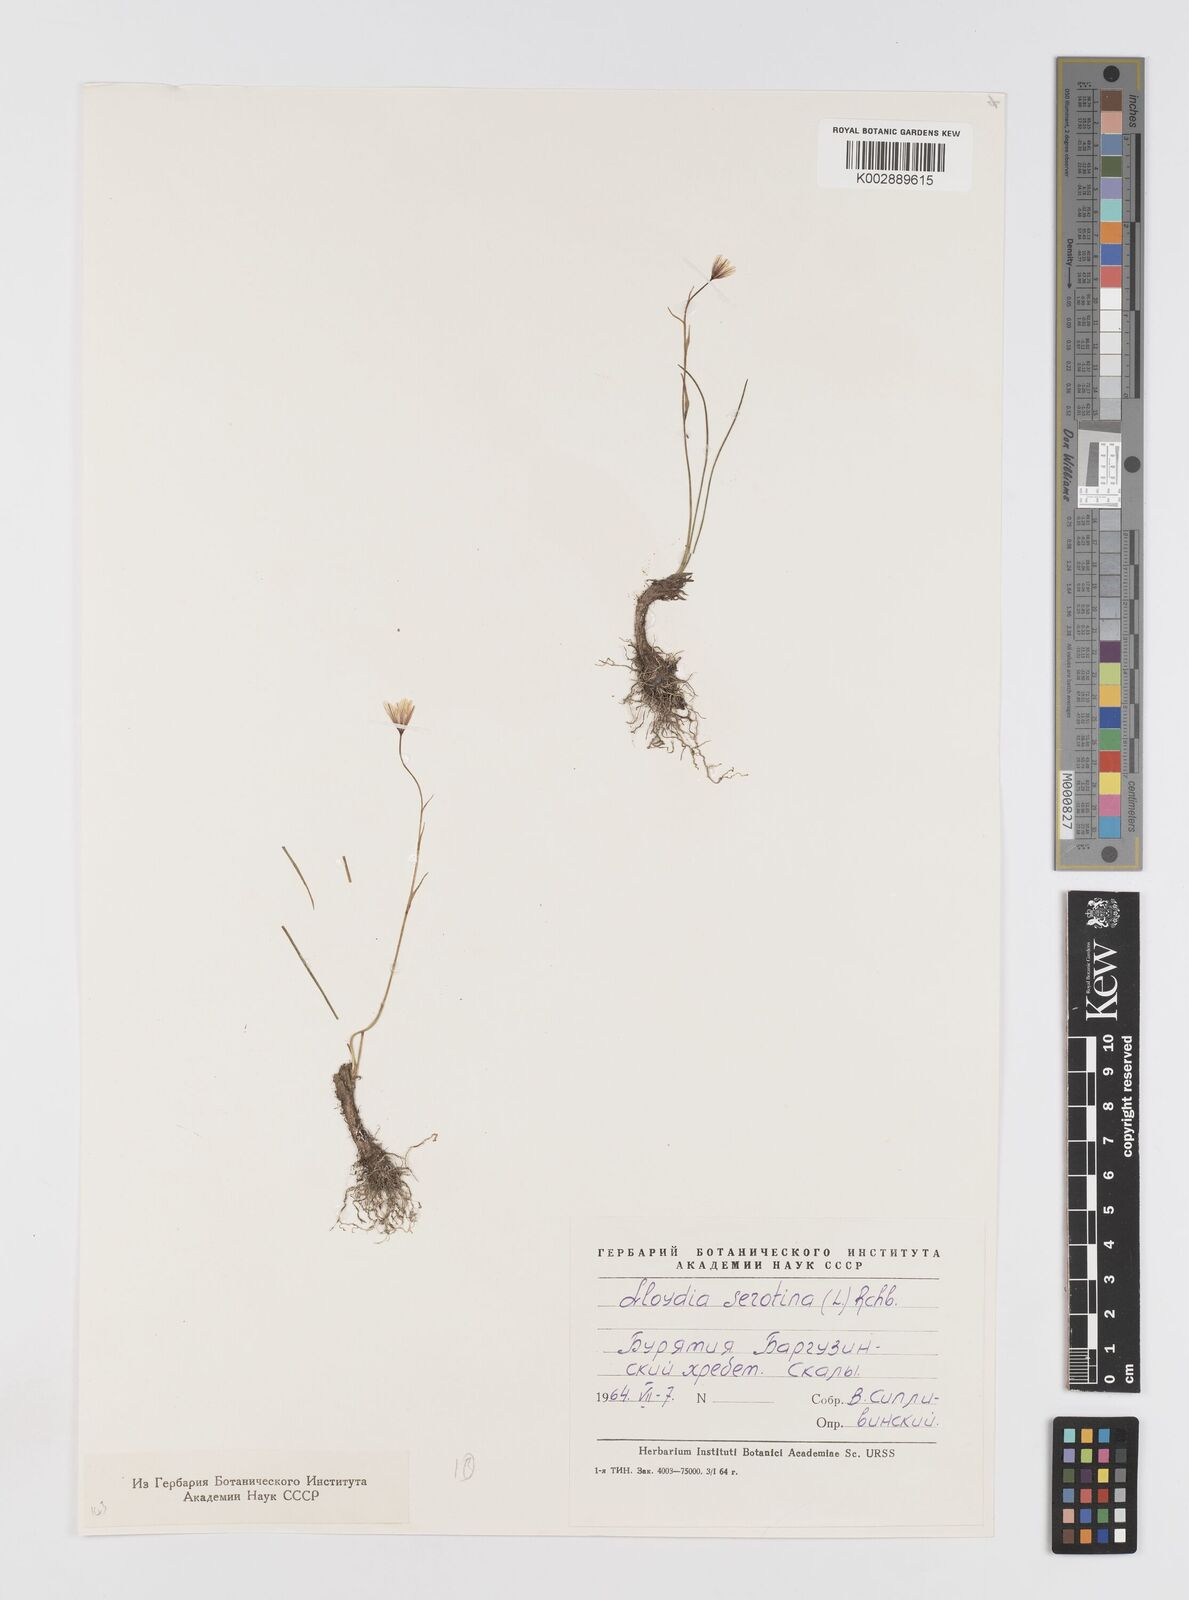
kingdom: Plantae
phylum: Tracheophyta
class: Liliopsida
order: Liliales
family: Liliaceae
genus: Gagea
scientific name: Gagea serotina
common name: Snowdon lily
